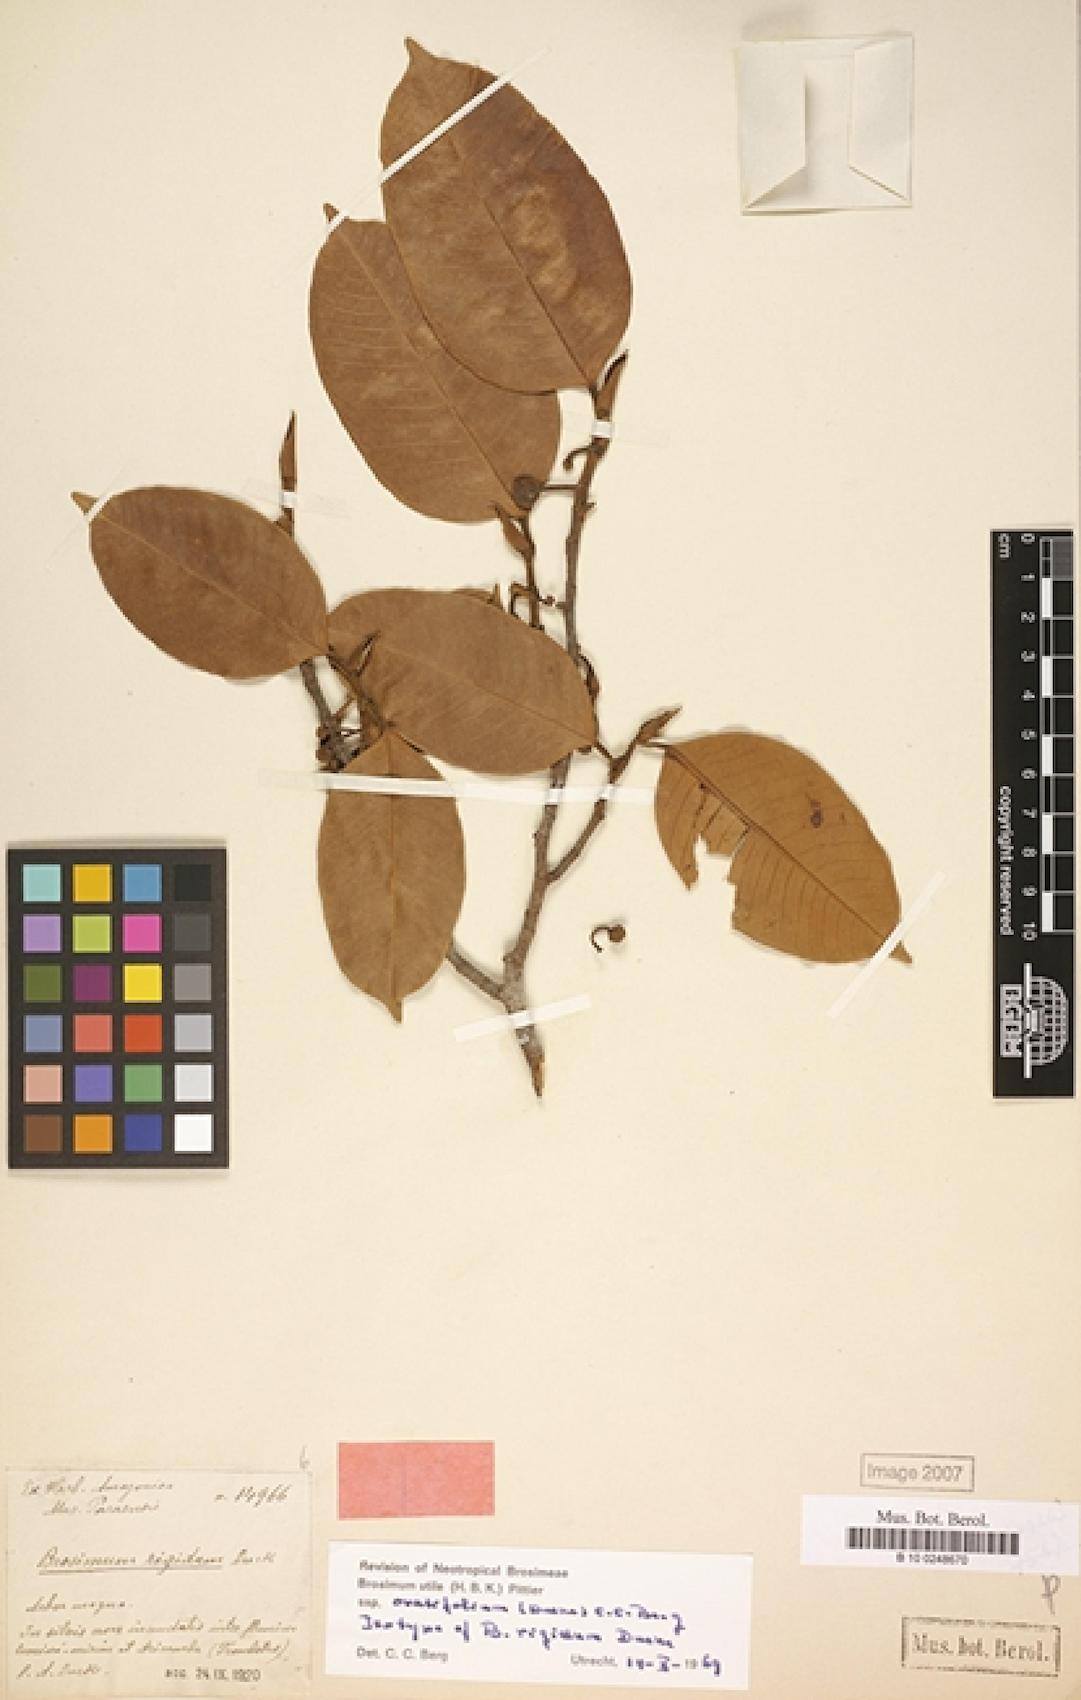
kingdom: Plantae
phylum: Tracheophyta
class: Magnoliopsida
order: Rosales
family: Moraceae
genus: Brosimum
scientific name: Brosimum utile
